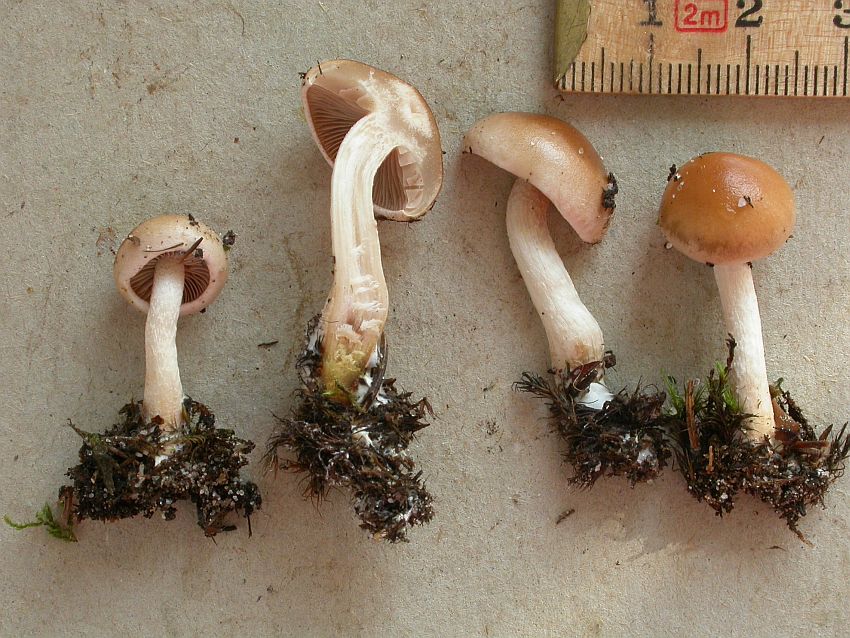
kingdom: Fungi
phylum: Basidiomycota
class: Agaricomycetes
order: Agaricales
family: Hymenogastraceae
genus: Hebeloma
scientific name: Hebeloma birrus
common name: rodslående tåreblad
